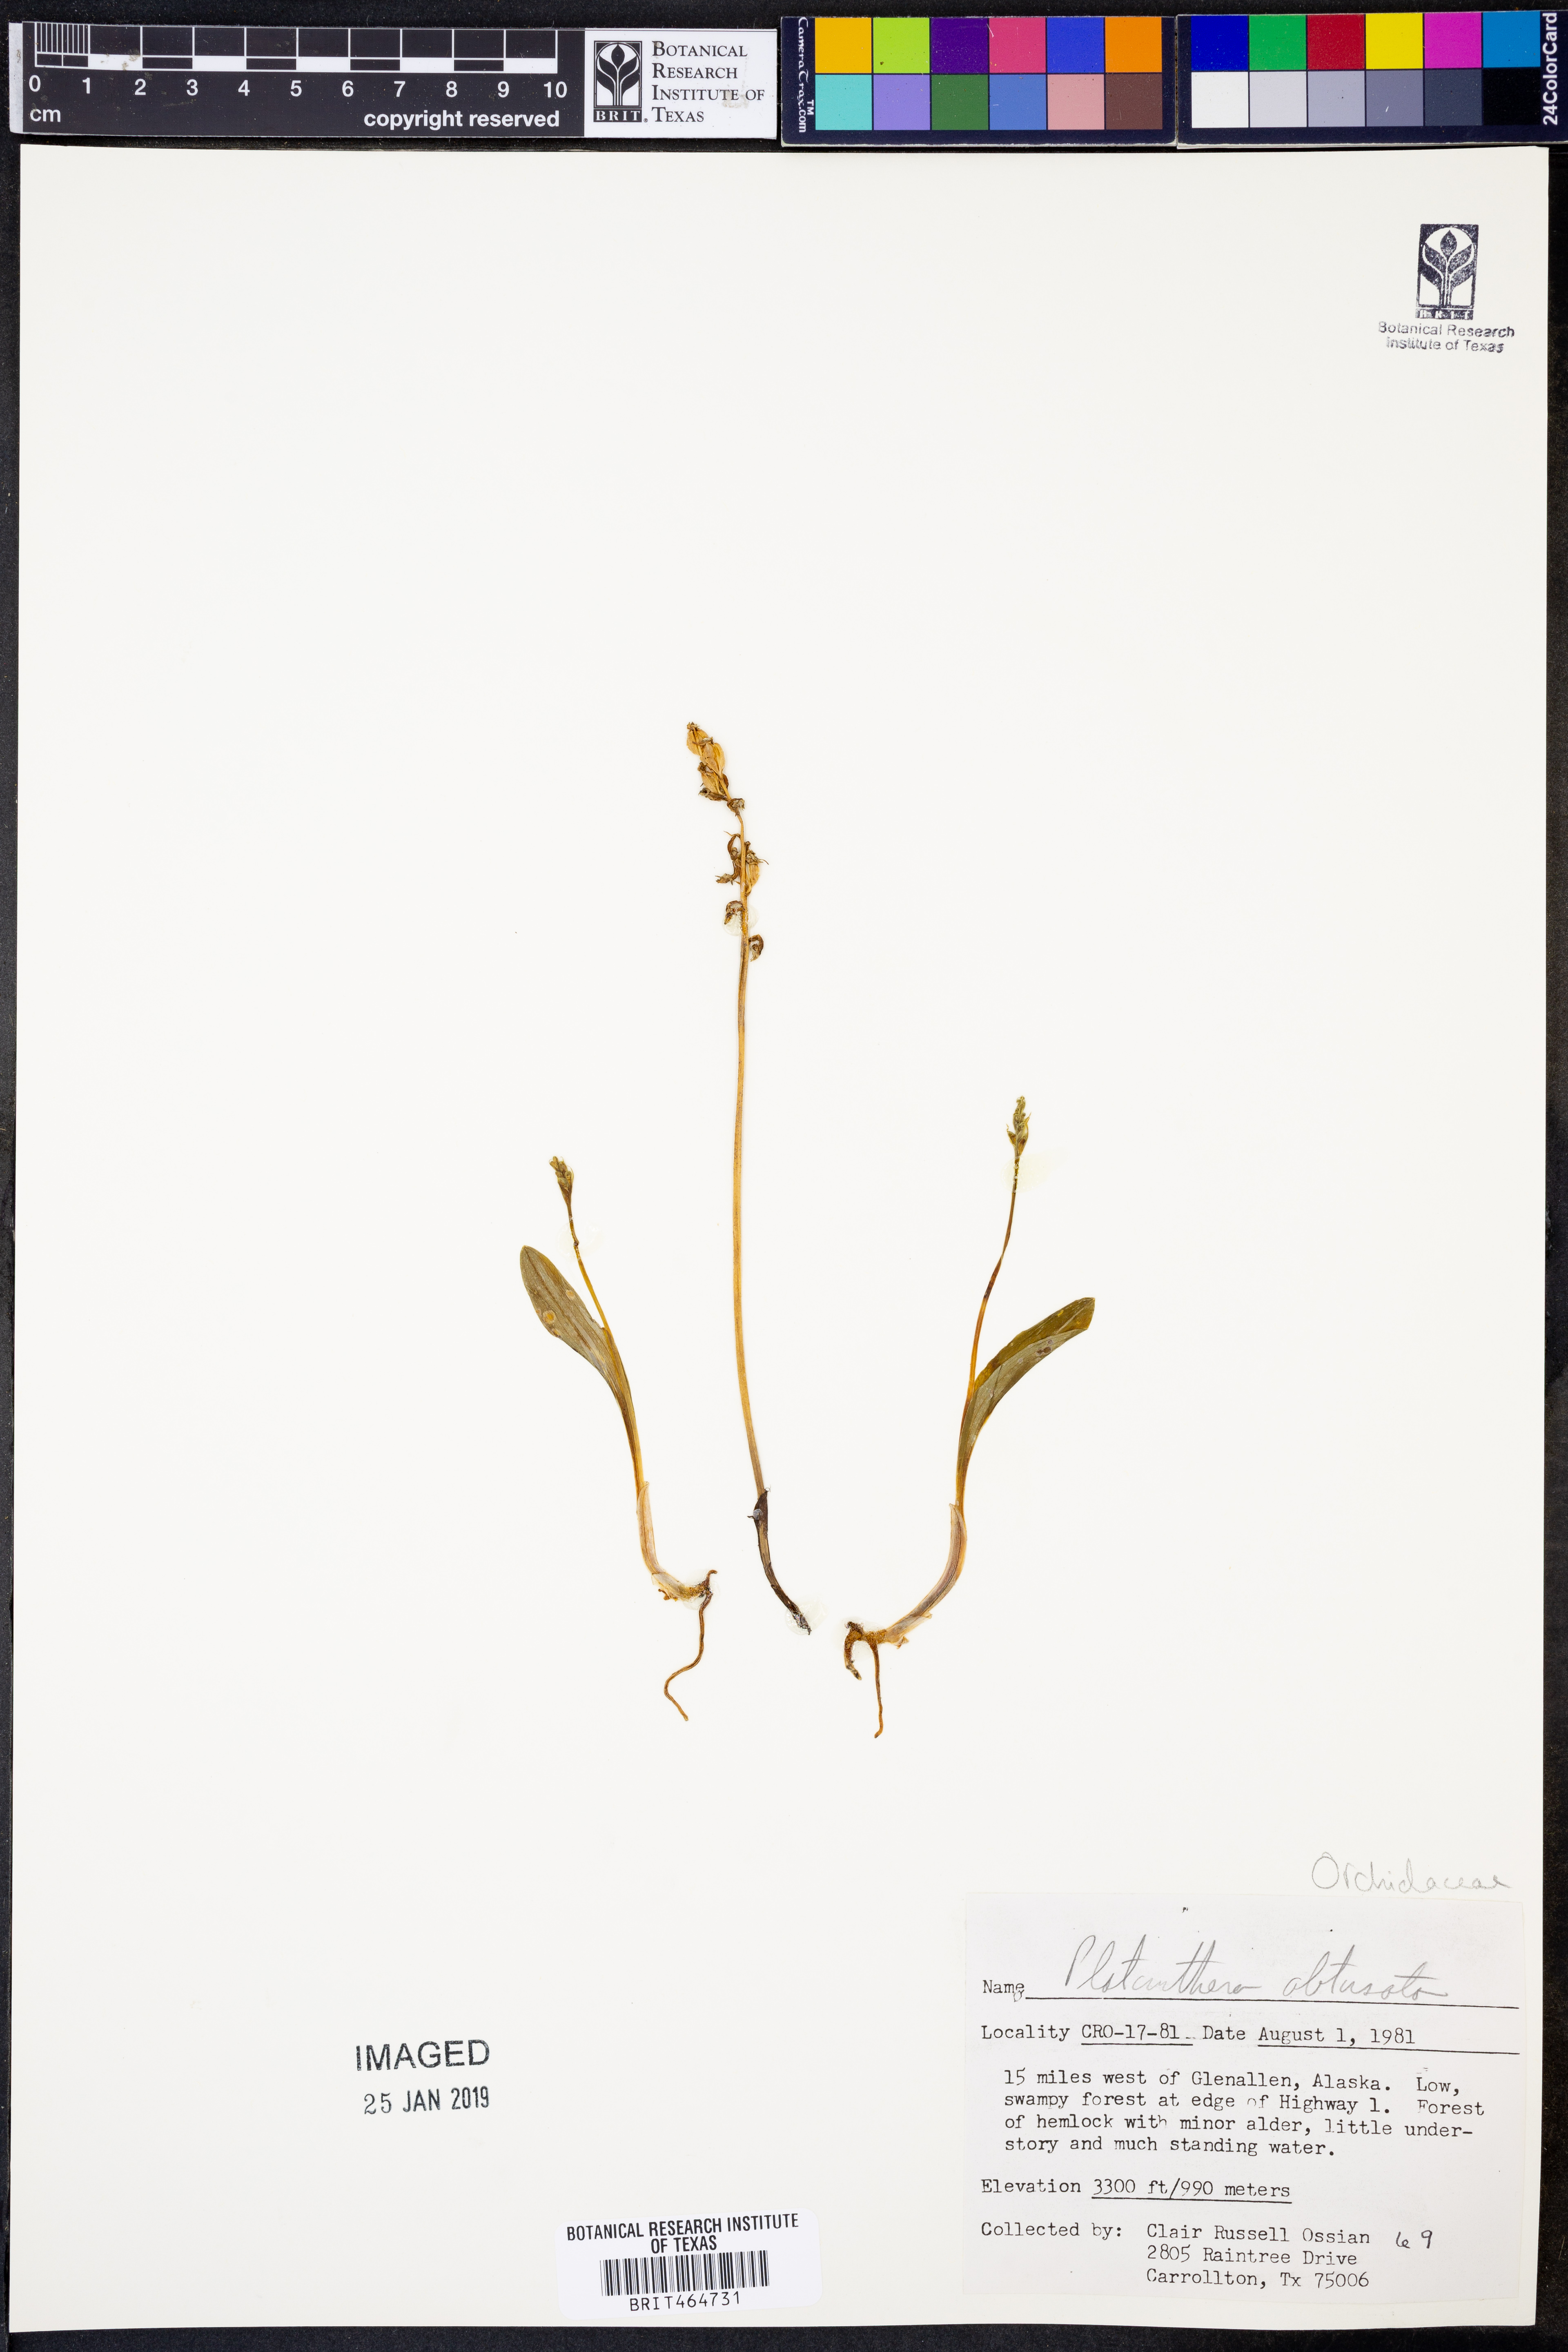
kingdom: Plantae
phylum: Tracheophyta
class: Liliopsida
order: Asparagales
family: Orchidaceae
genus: Platanthera
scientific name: Platanthera obtusata
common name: Blunt bog orchid
